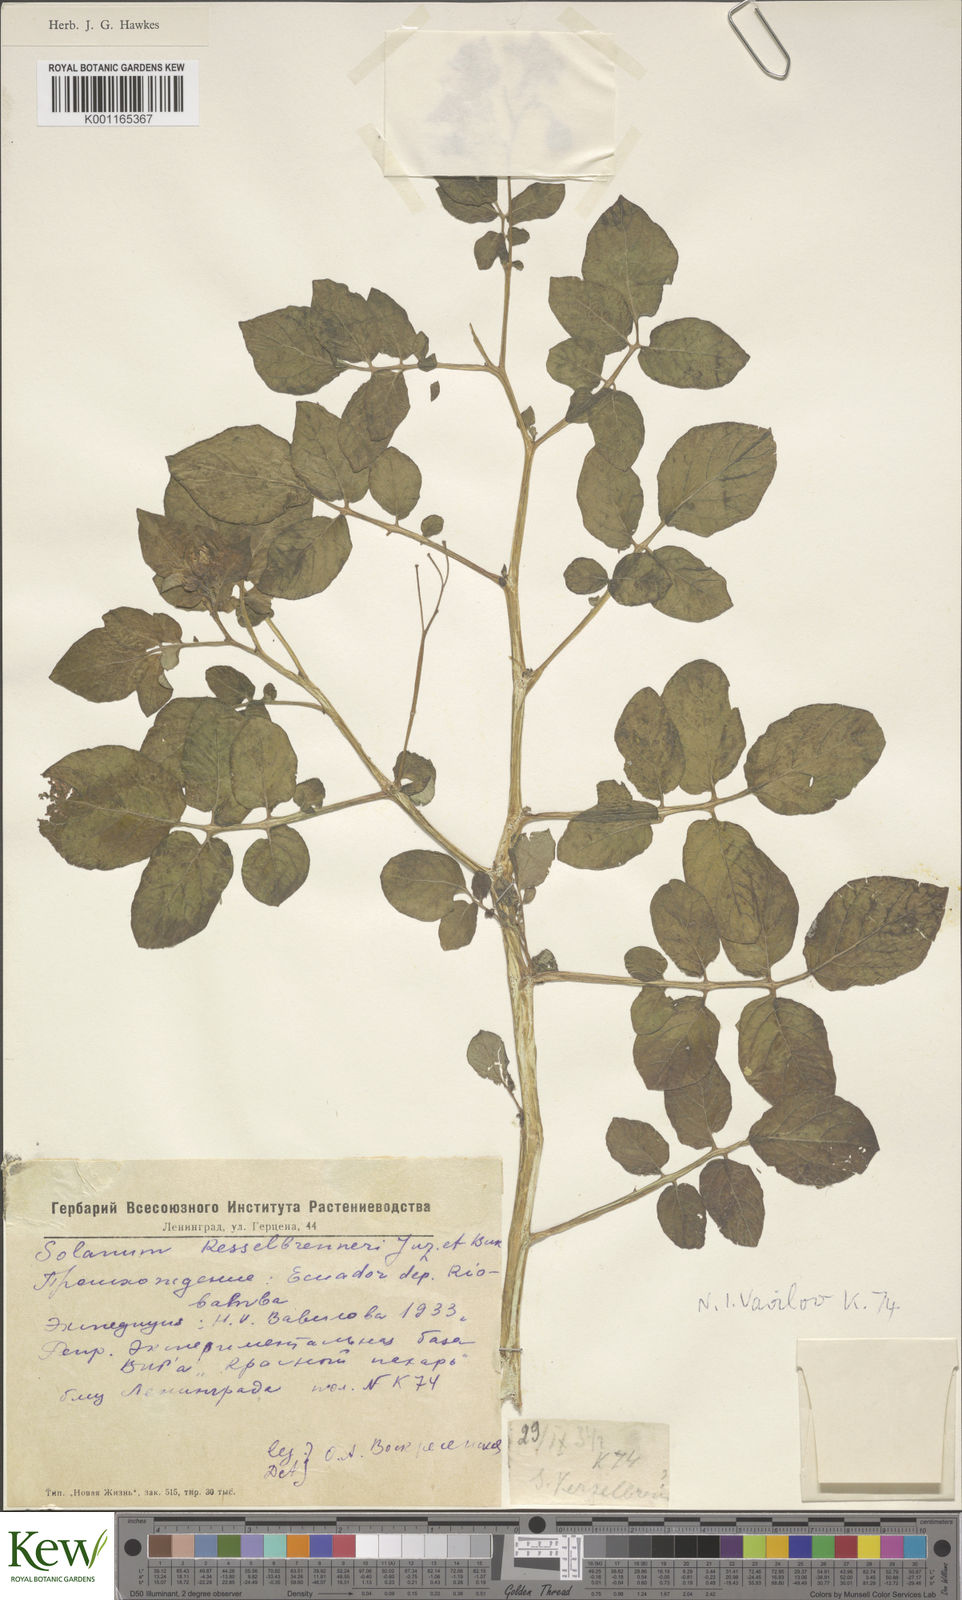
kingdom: Plantae
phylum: Tracheophyta
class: Magnoliopsida
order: Solanales
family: Solanaceae
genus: Solanum
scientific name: Solanum tuberosum
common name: Potato
